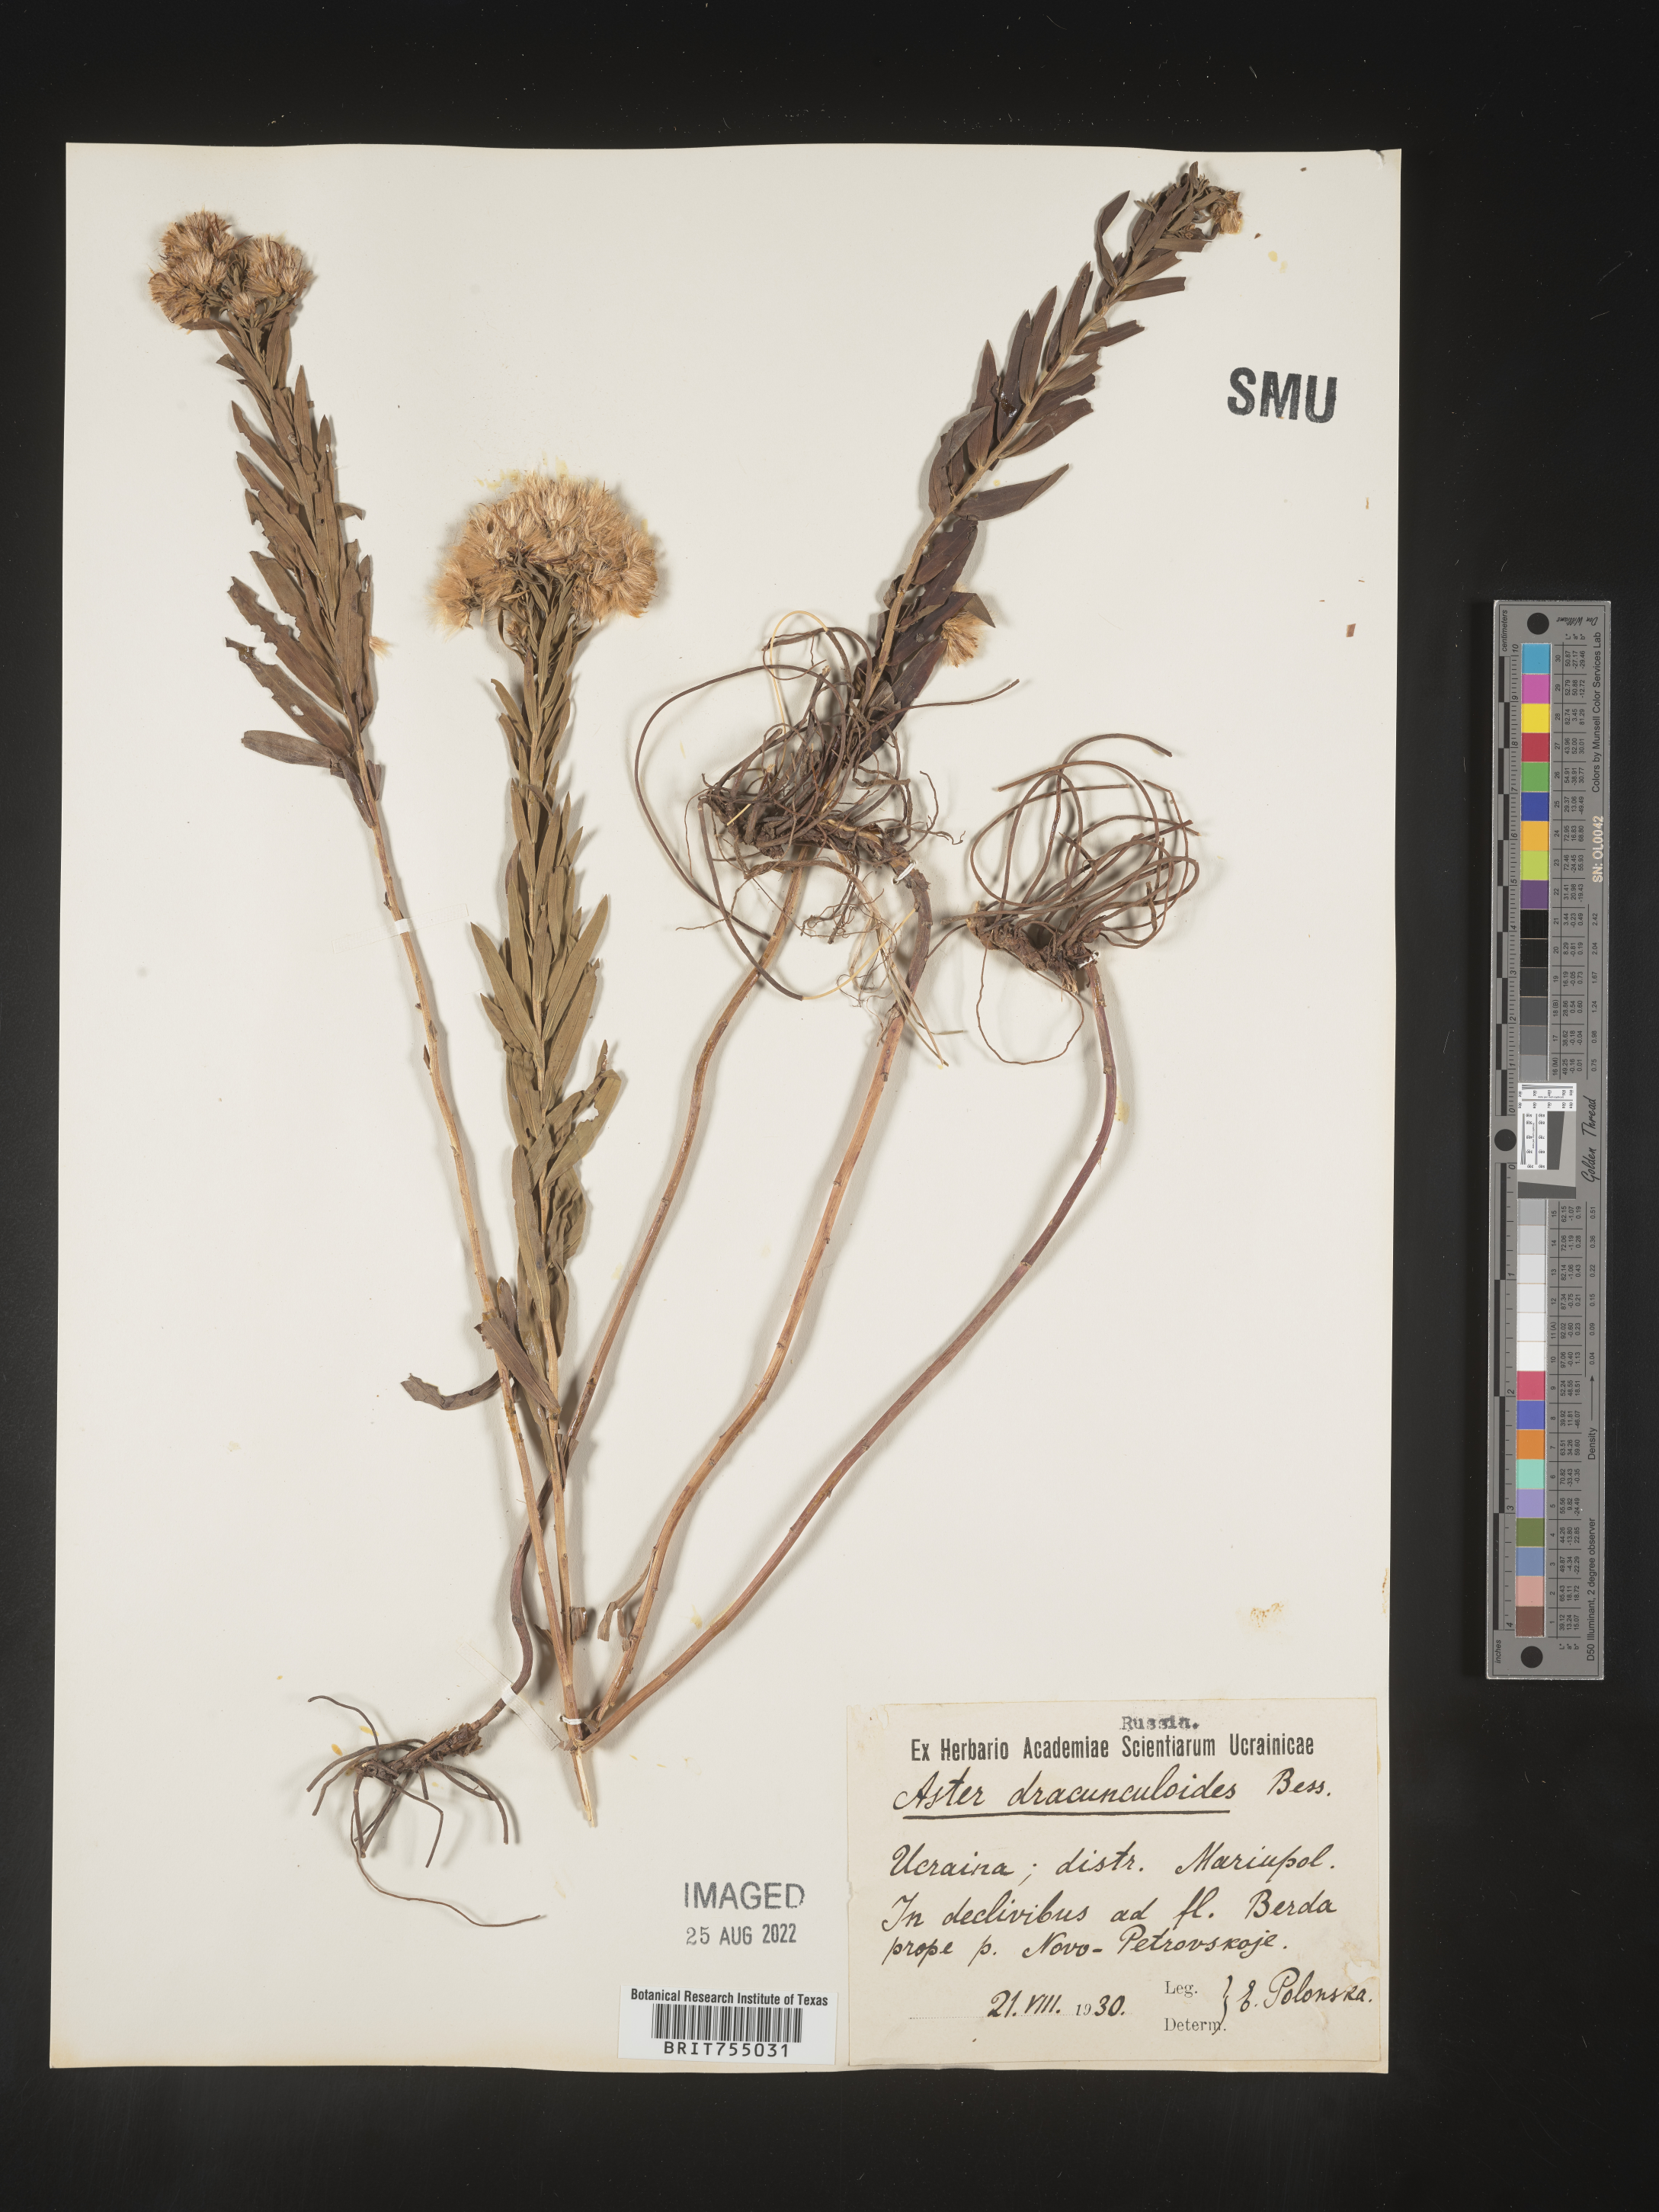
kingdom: Plantae
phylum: Tracheophyta
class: Magnoliopsida
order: Asterales
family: Asteraceae
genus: Symphyotrichum
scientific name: Symphyotrichum
